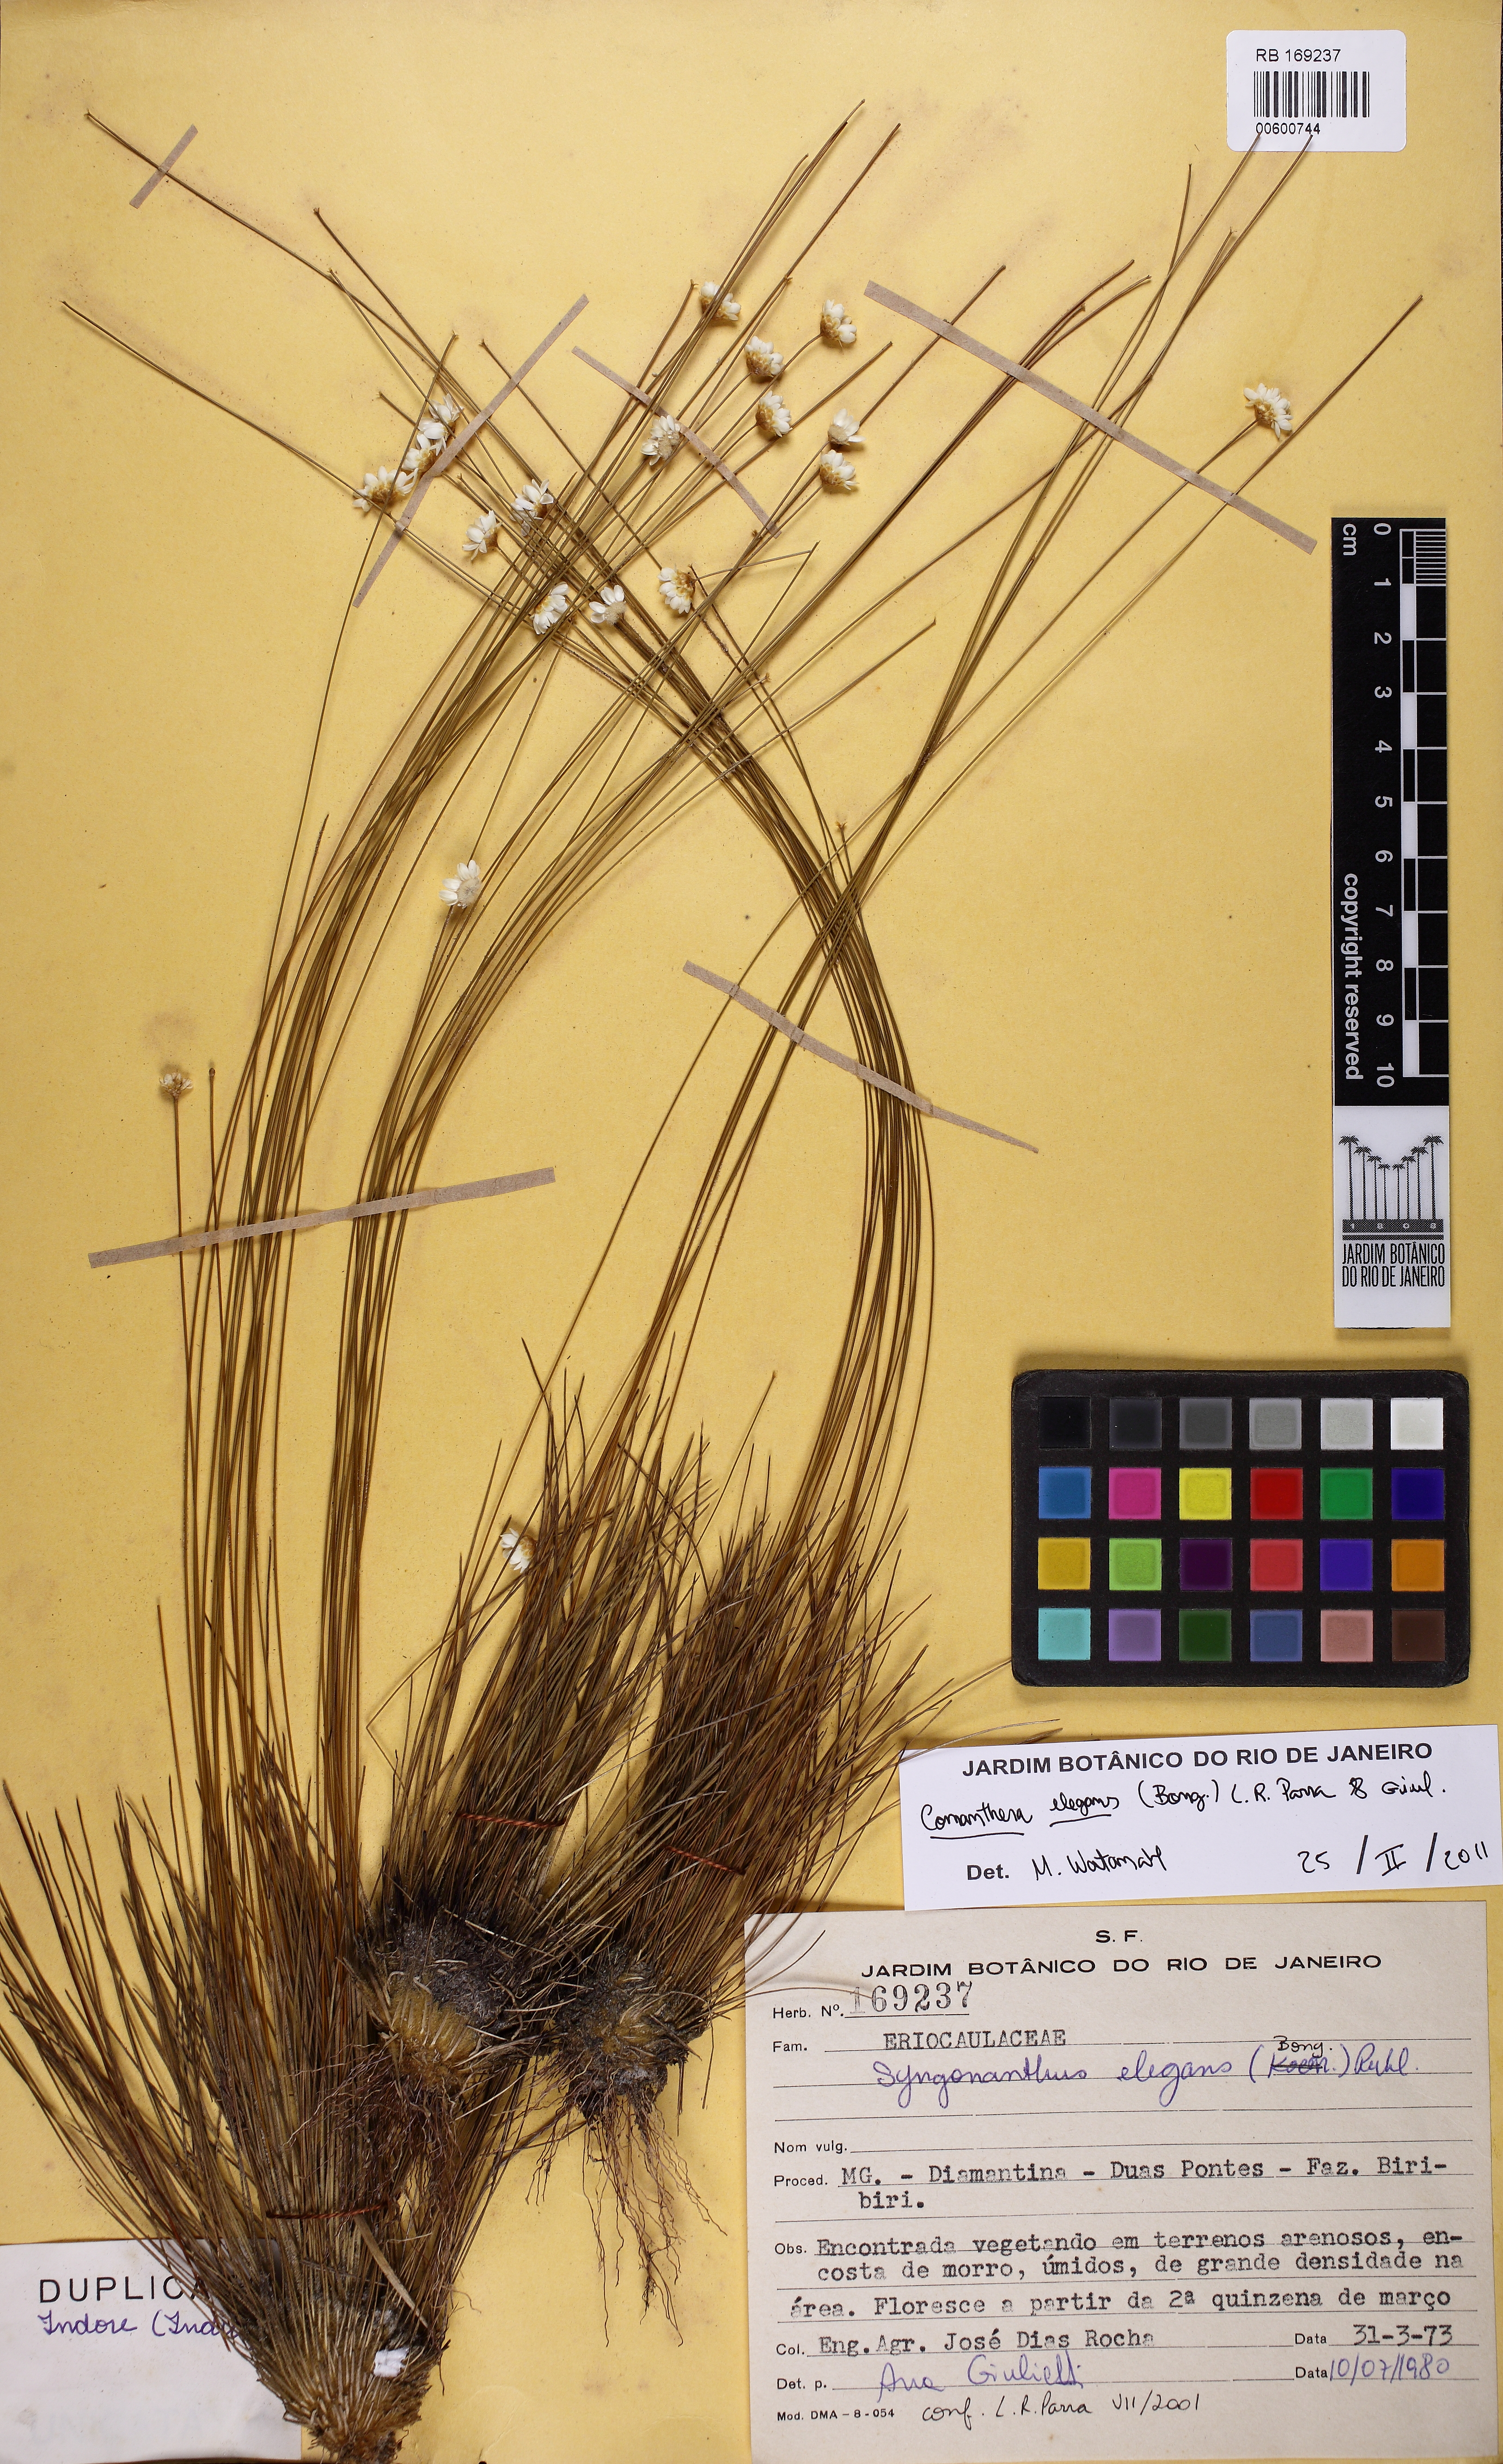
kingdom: Plantae
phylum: Tracheophyta
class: Liliopsida
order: Poales
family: Eriocaulaceae
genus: Comanthera
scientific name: Comanthera elegans
